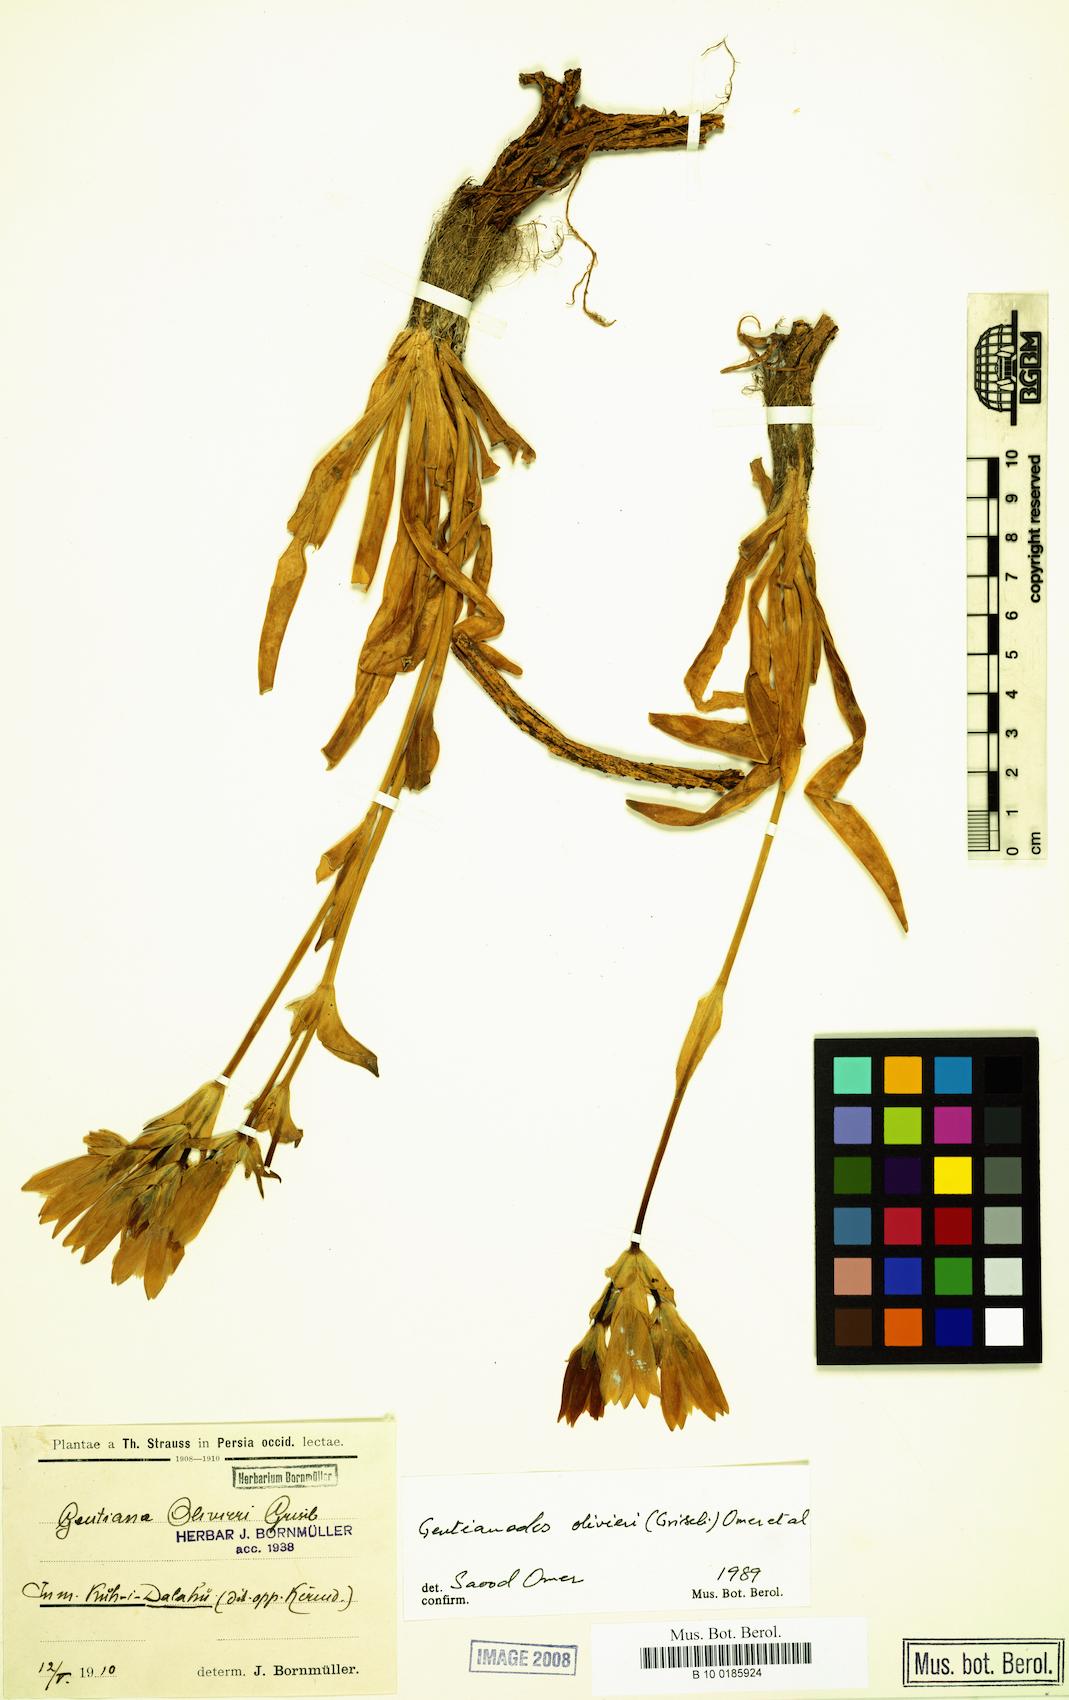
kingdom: Plantae
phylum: Tracheophyta
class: Magnoliopsida
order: Gentianales
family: Gentianaceae
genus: Gentiana
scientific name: Gentiana olivieri
